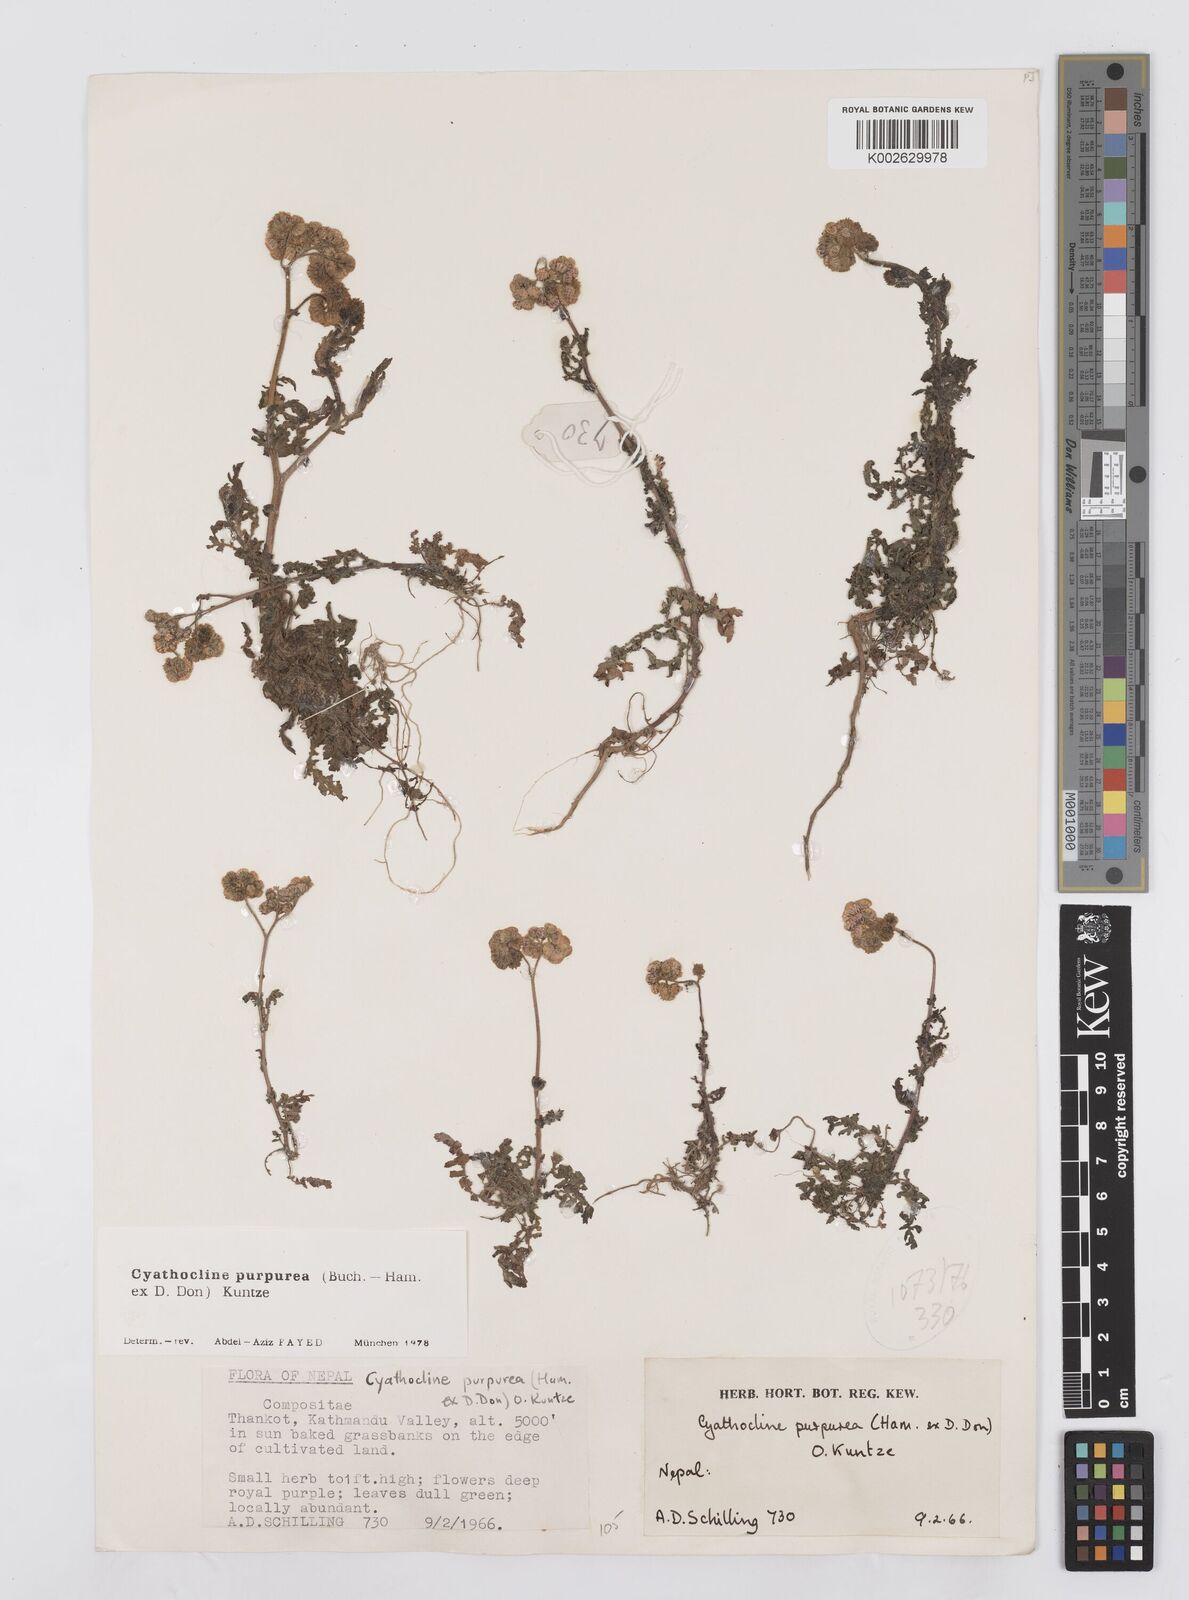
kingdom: Plantae
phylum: Tracheophyta
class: Magnoliopsida
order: Asterales
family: Asteraceae
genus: Cyathocline
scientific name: Cyathocline purpurea
